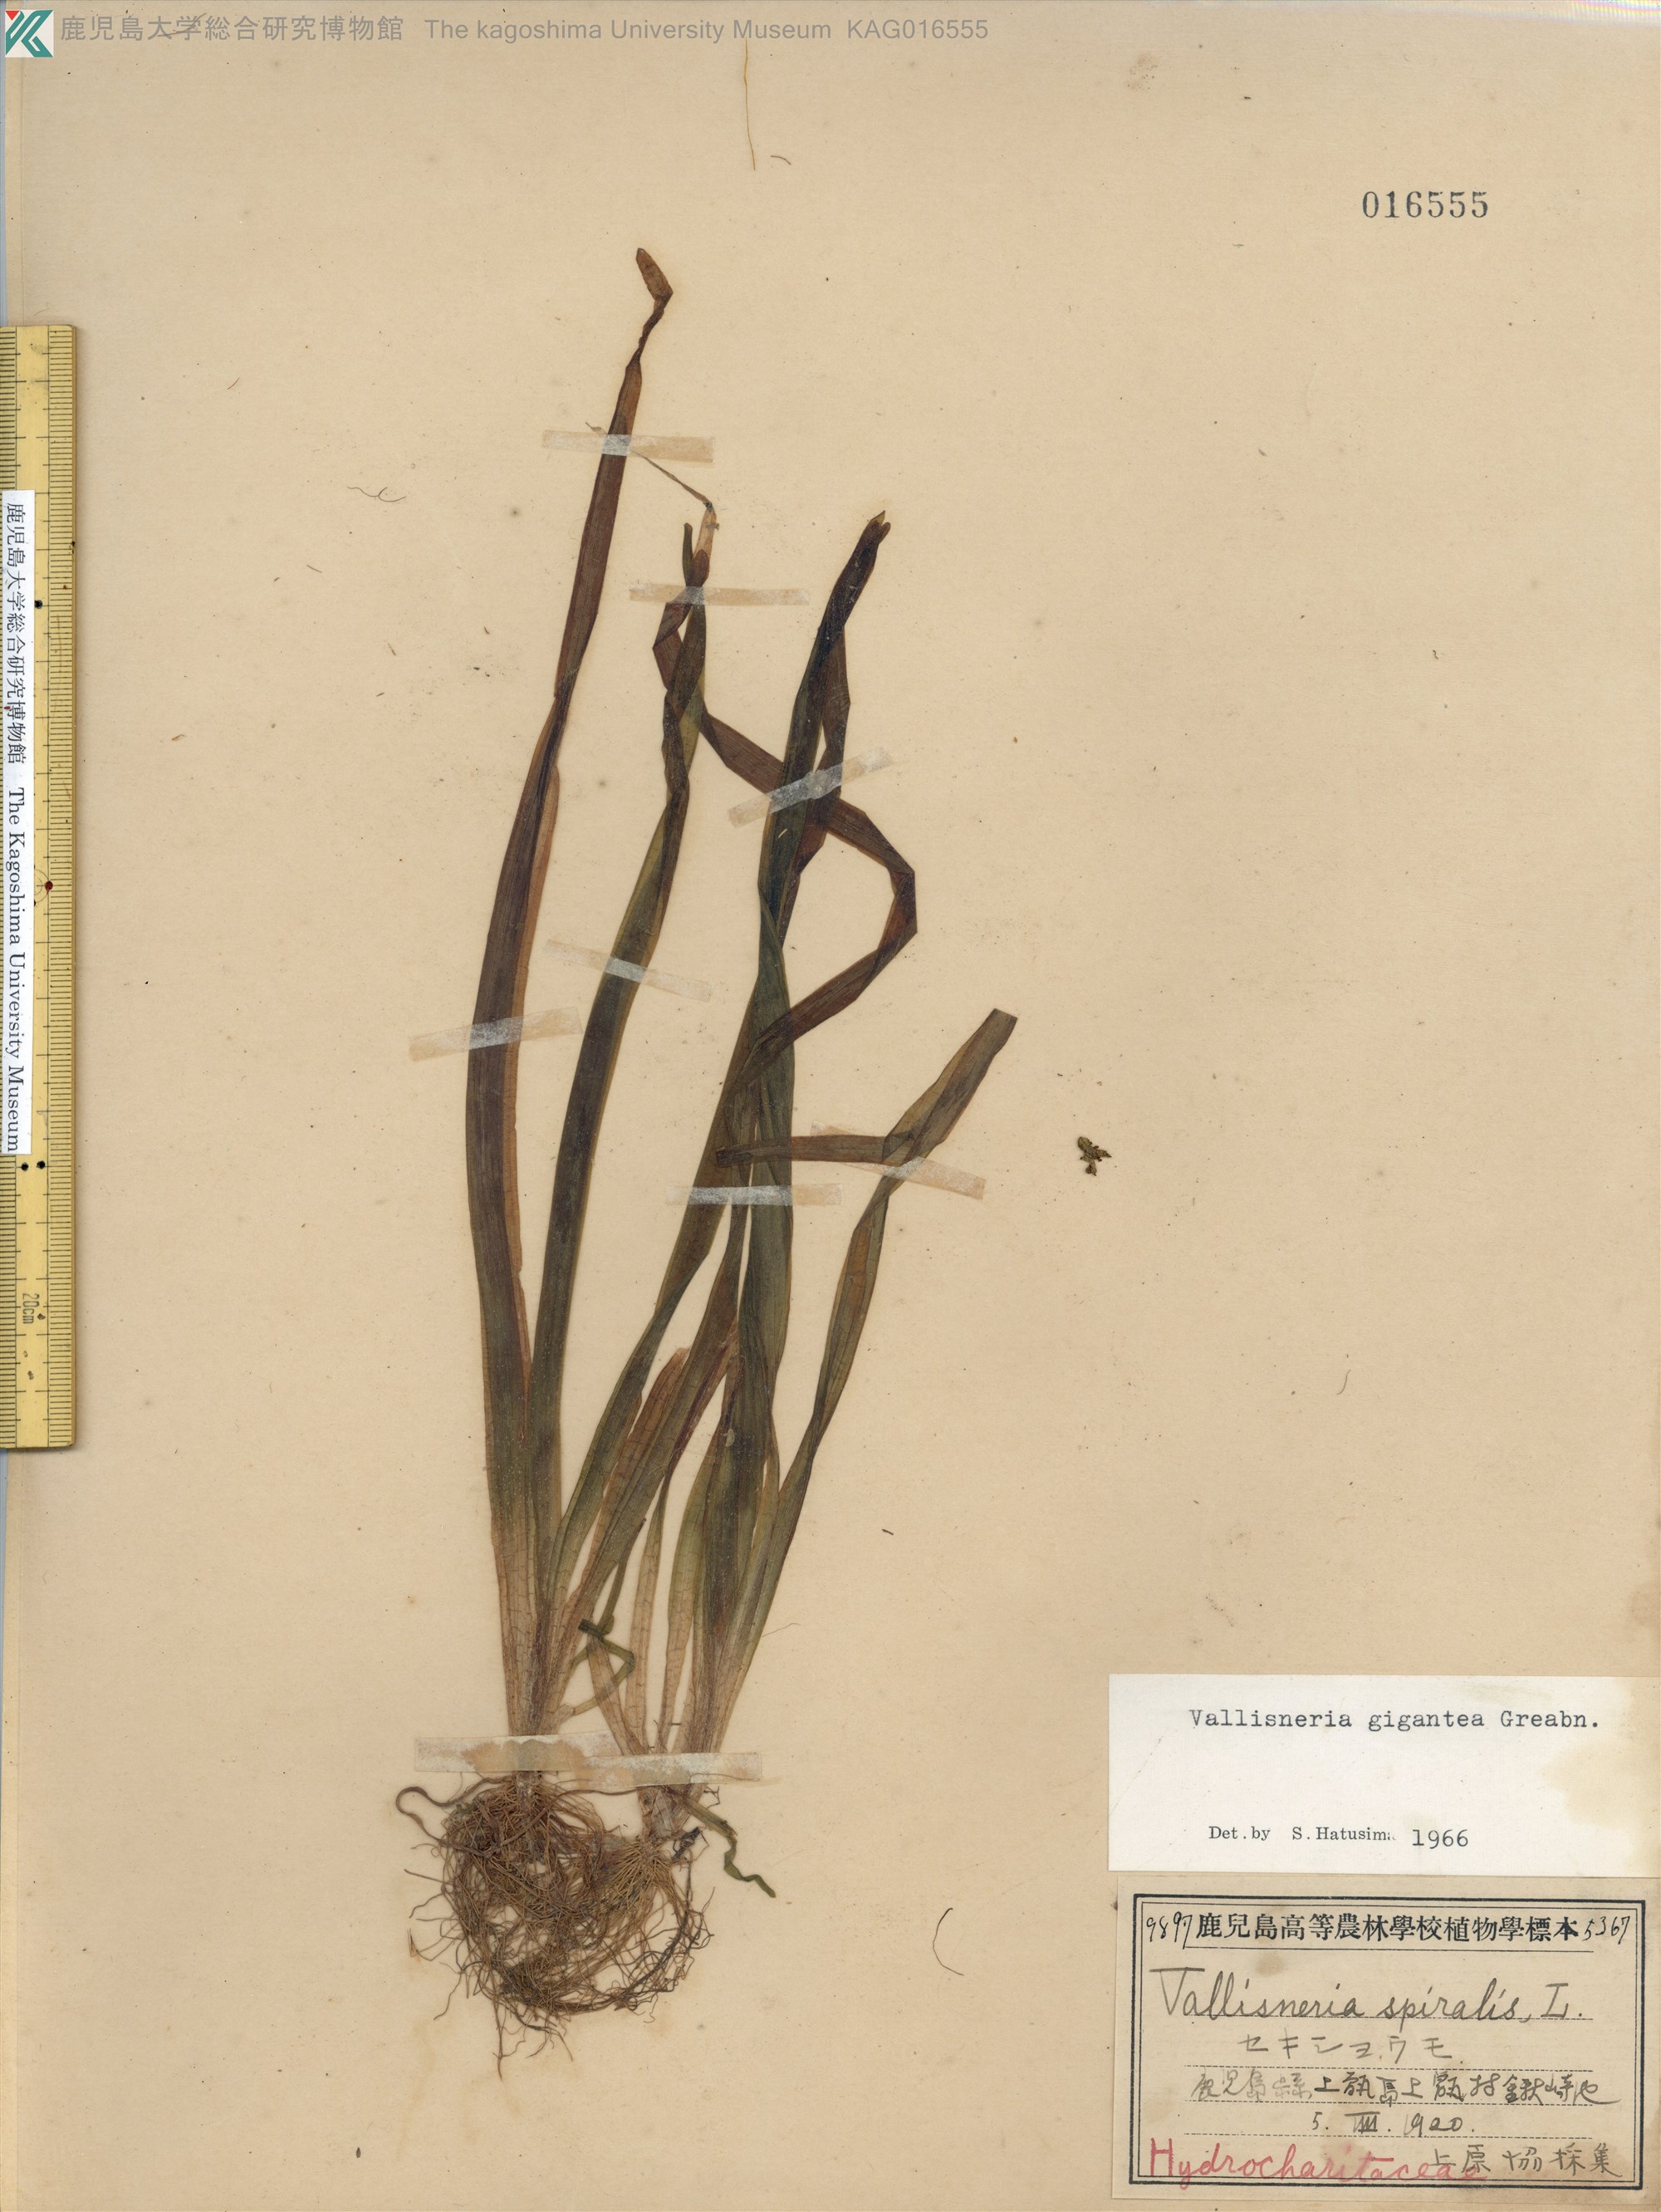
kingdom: Plantae
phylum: Tracheophyta
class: Liliopsida
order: Alismatales
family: Hydrocharitaceae
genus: Vallisneria
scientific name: Vallisneria natans
